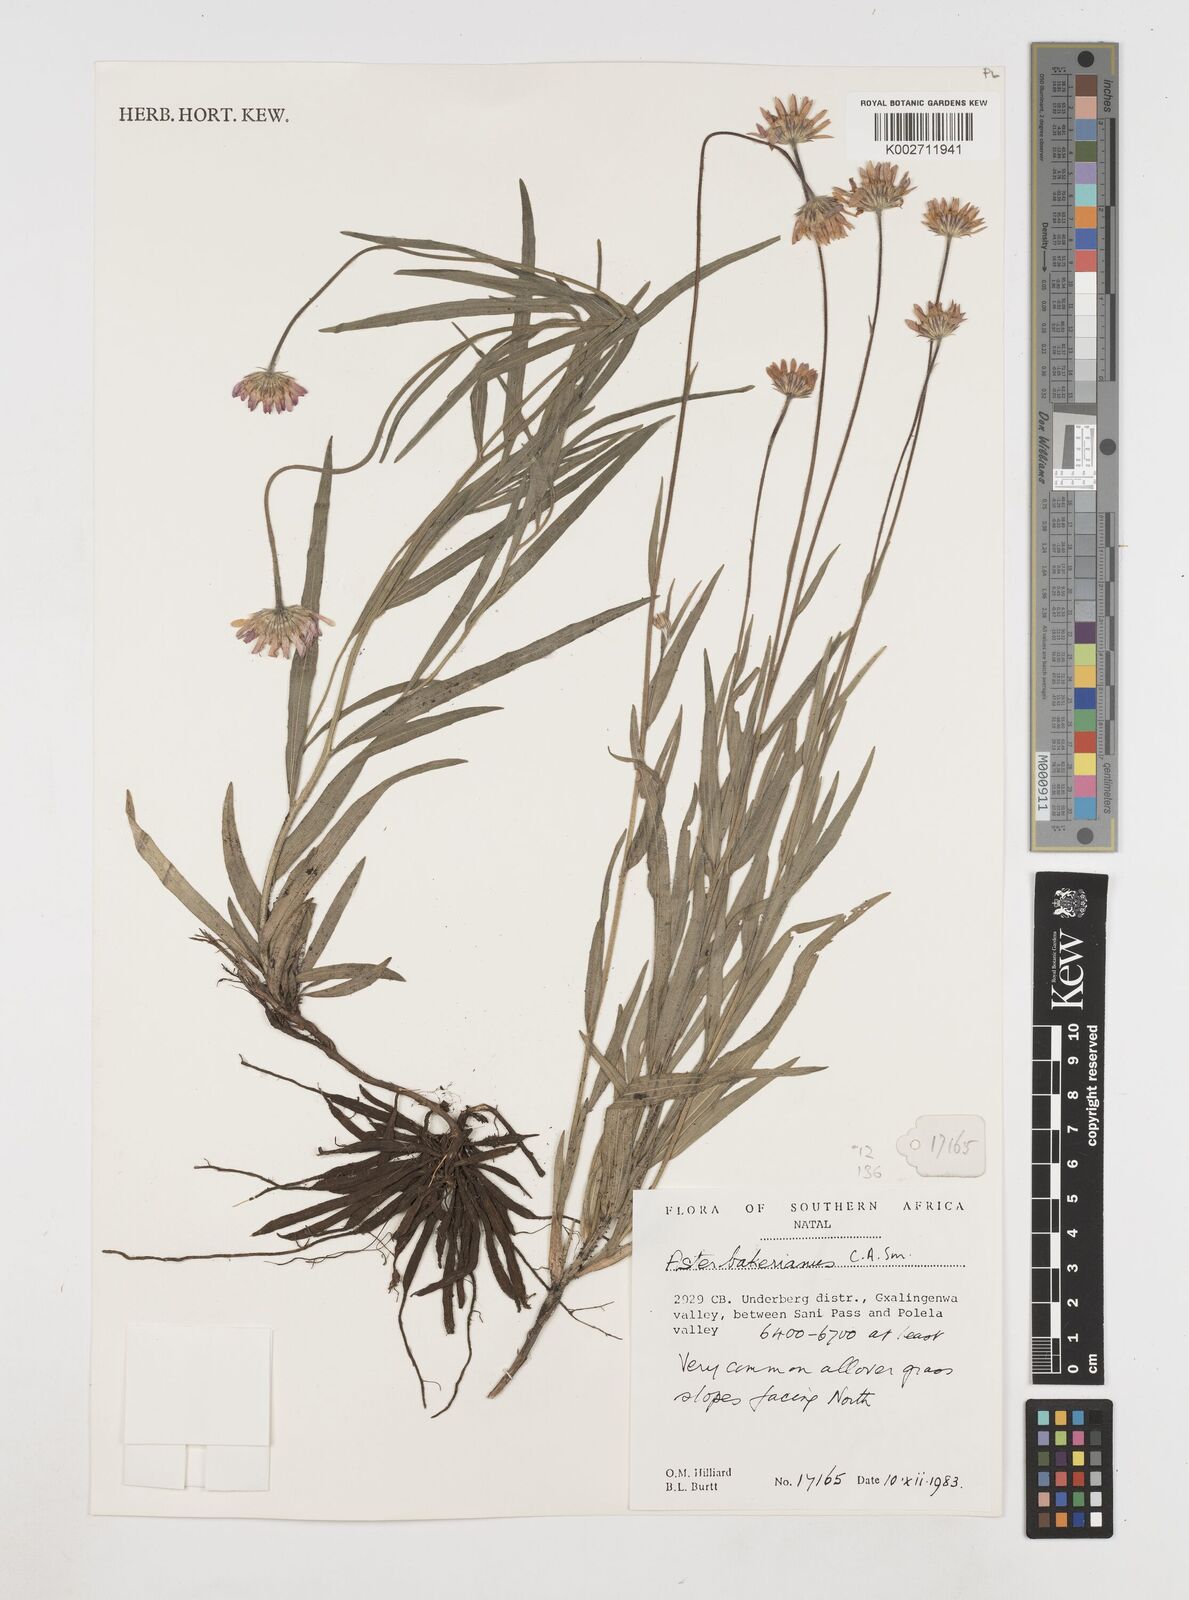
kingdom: Plantae
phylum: Tracheophyta
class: Magnoliopsida
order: Asterales
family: Asteraceae
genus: Afroaster
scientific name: Afroaster hispidus
